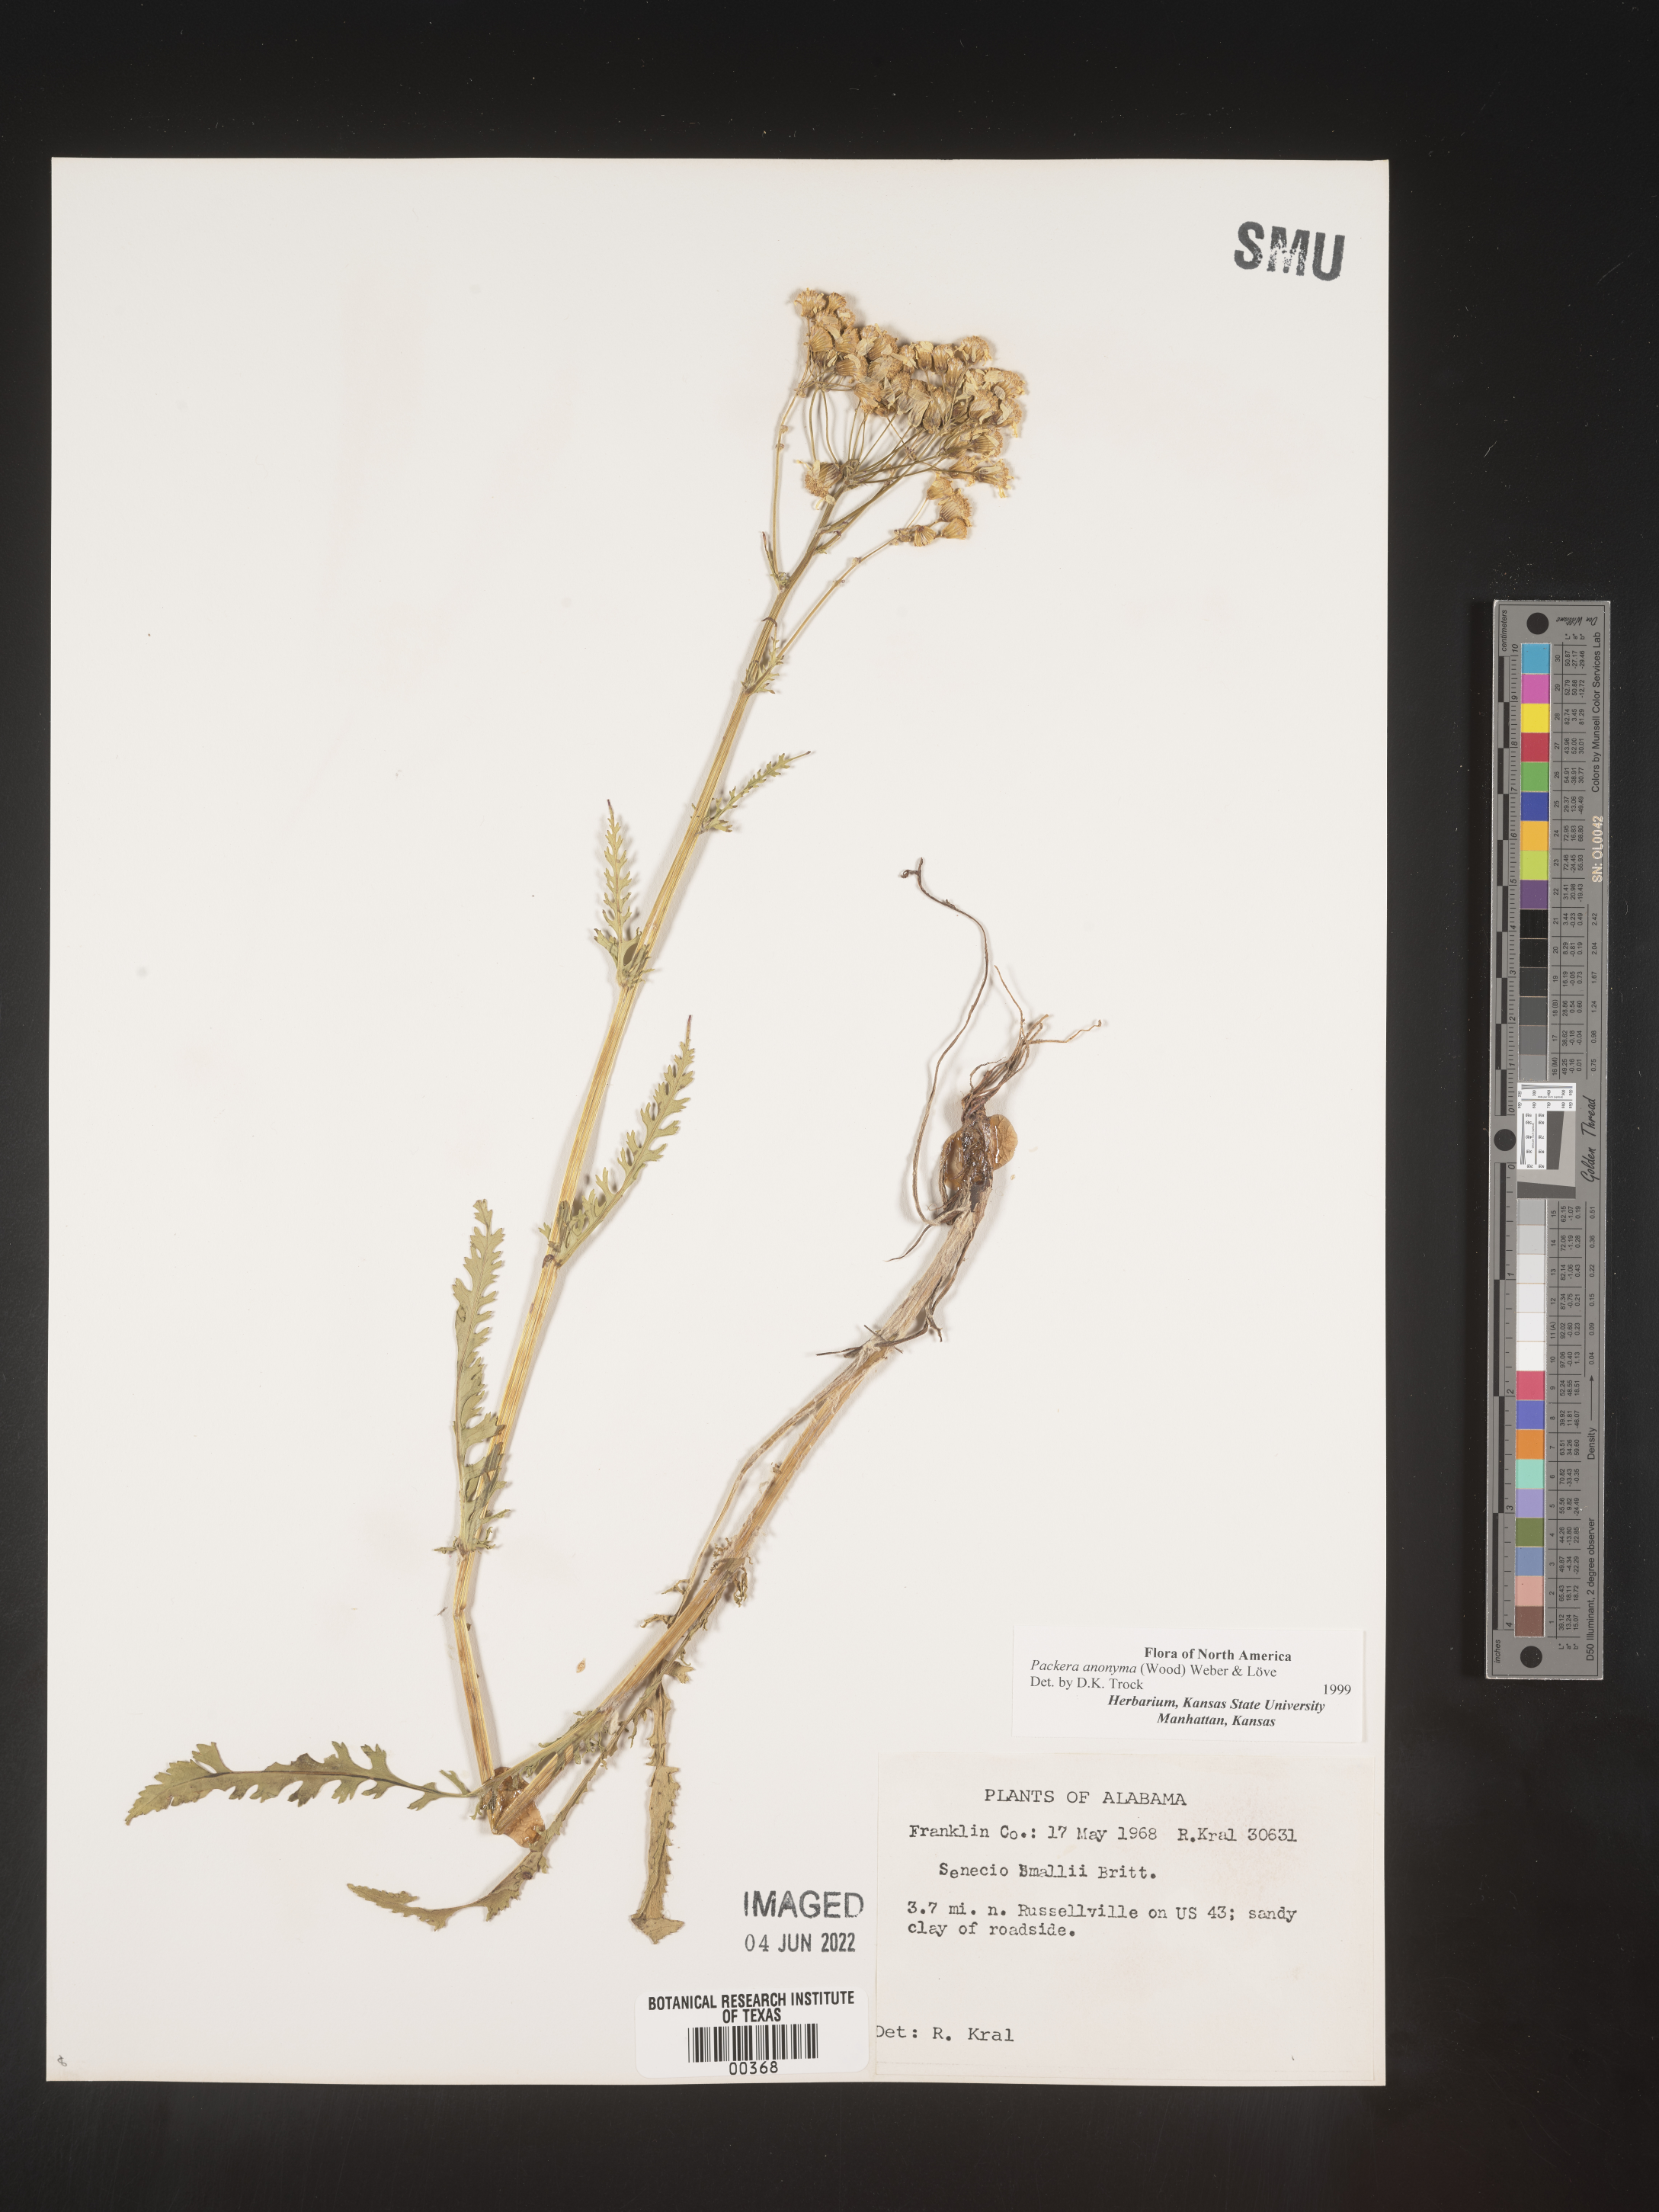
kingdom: Plantae
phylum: Tracheophyta
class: Magnoliopsida
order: Asterales
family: Asteraceae
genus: Packera
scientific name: Packera anonyma
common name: Small ragwort
